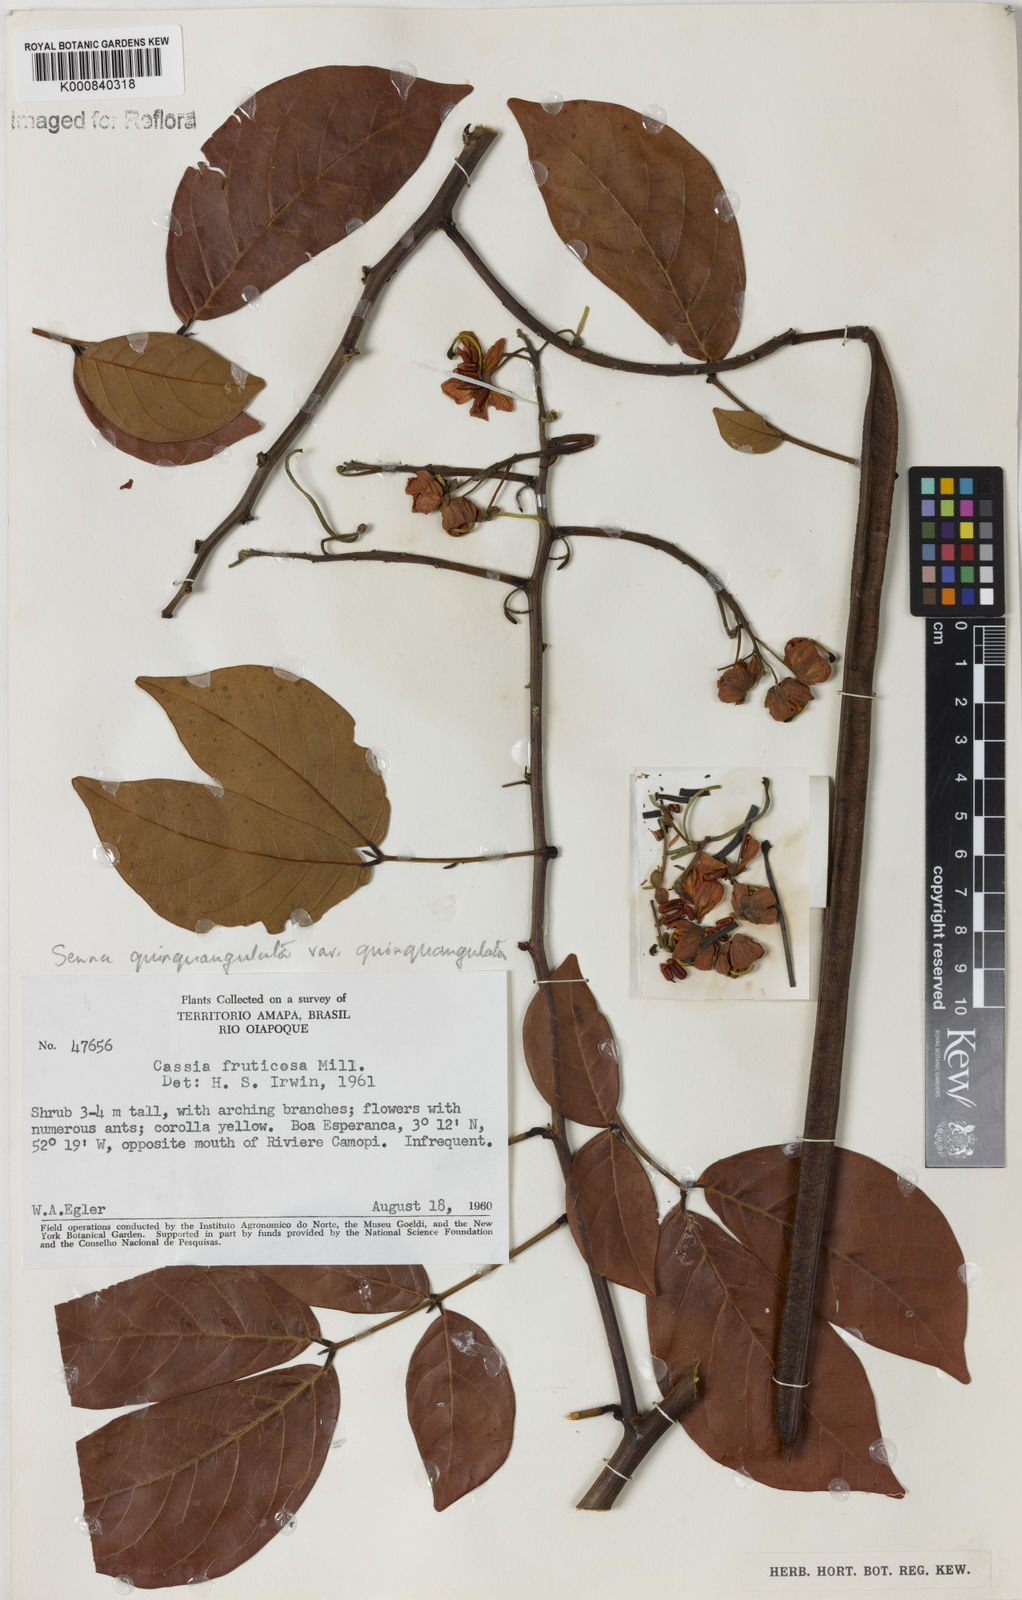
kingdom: Plantae
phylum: Tracheophyta
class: Magnoliopsida
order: Fabales
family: Fabaceae
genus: Senna
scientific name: Senna
